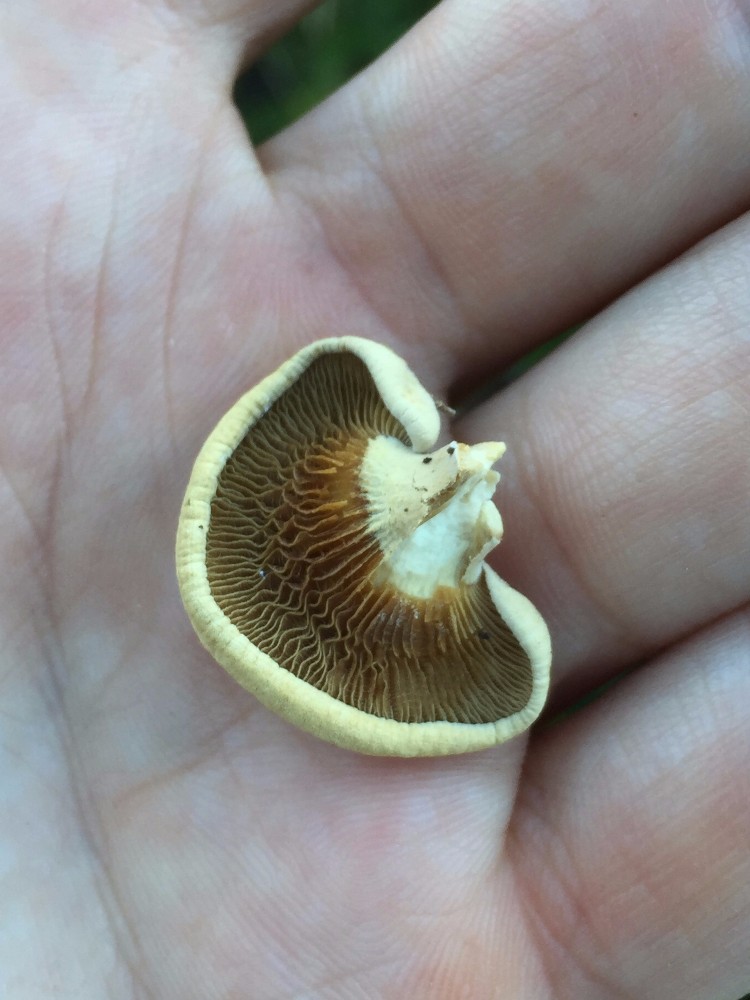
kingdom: Fungi
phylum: Basidiomycota
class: Agaricomycetes
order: Agaricales
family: Mycenaceae
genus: Panellus
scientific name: Panellus stipticus
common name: kliddet epaulethat
